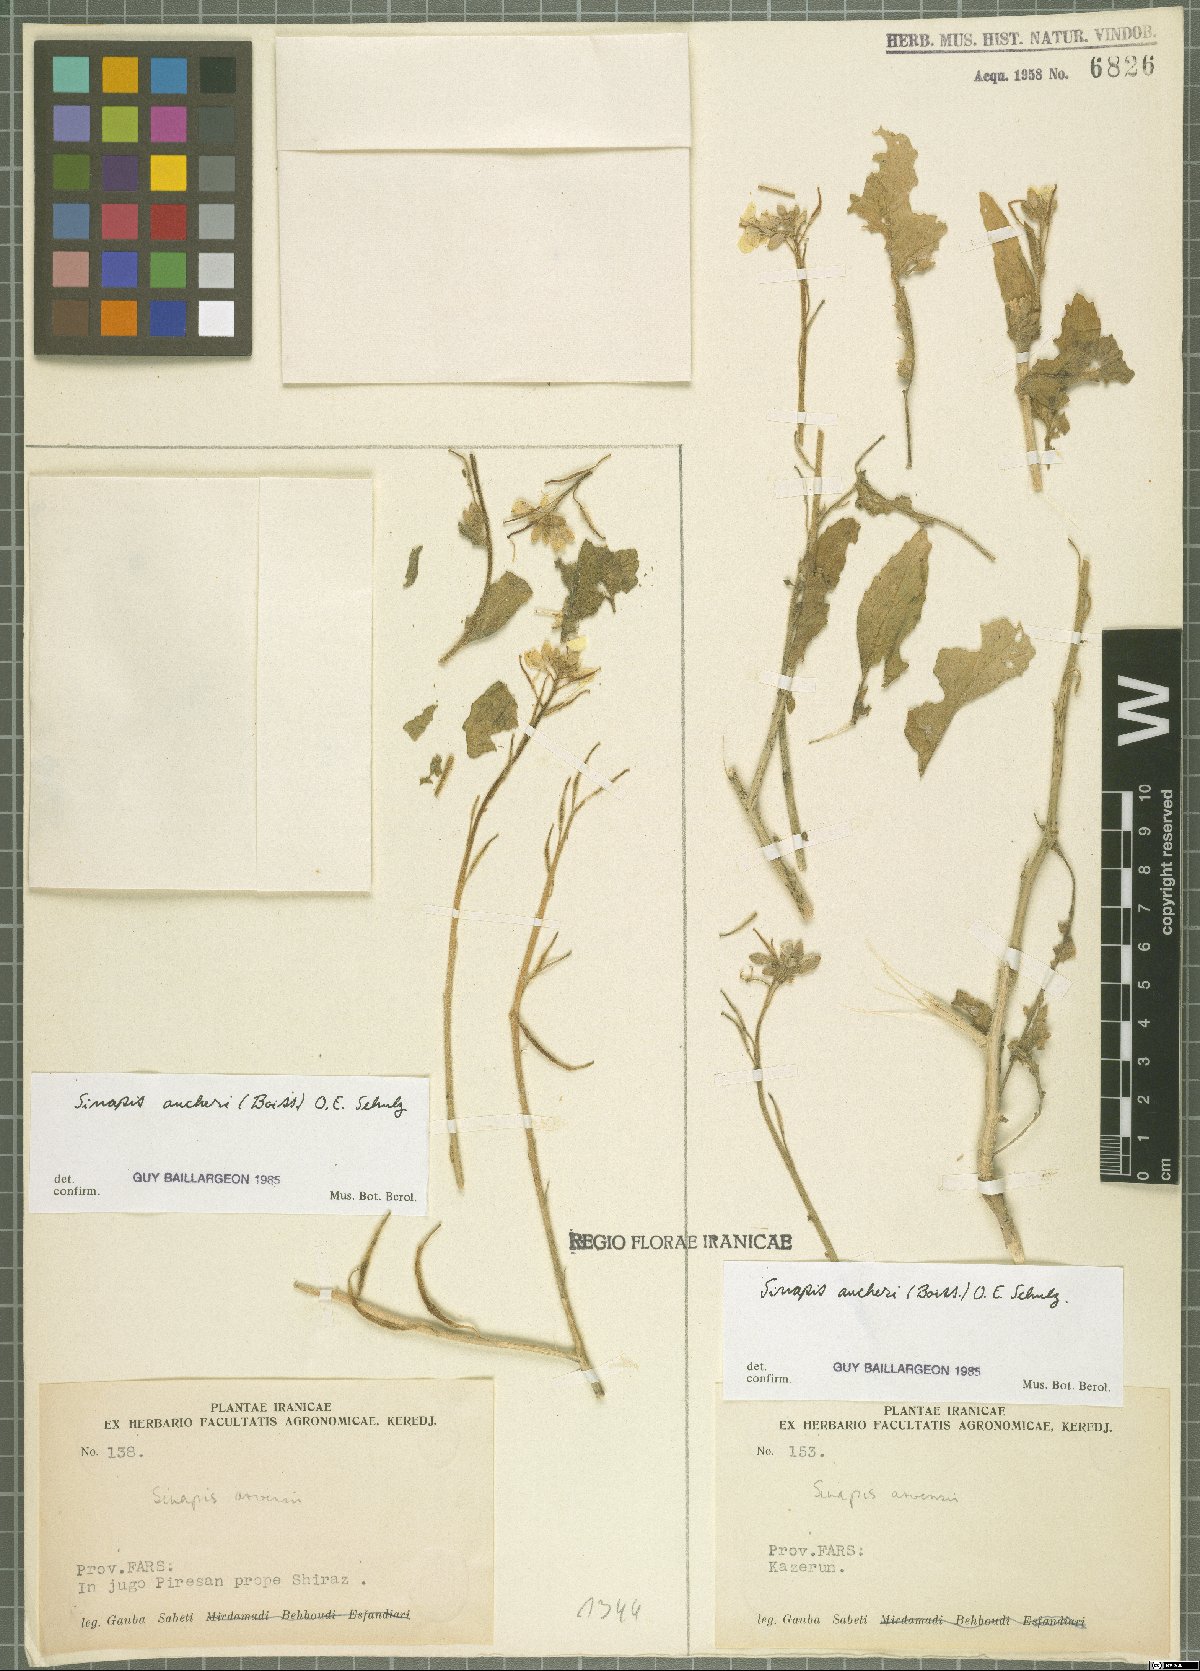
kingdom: Plantae
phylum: Tracheophyta
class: Magnoliopsida
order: Brassicales
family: Brassicaceae
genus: Brassica
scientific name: Brassica aucheri
